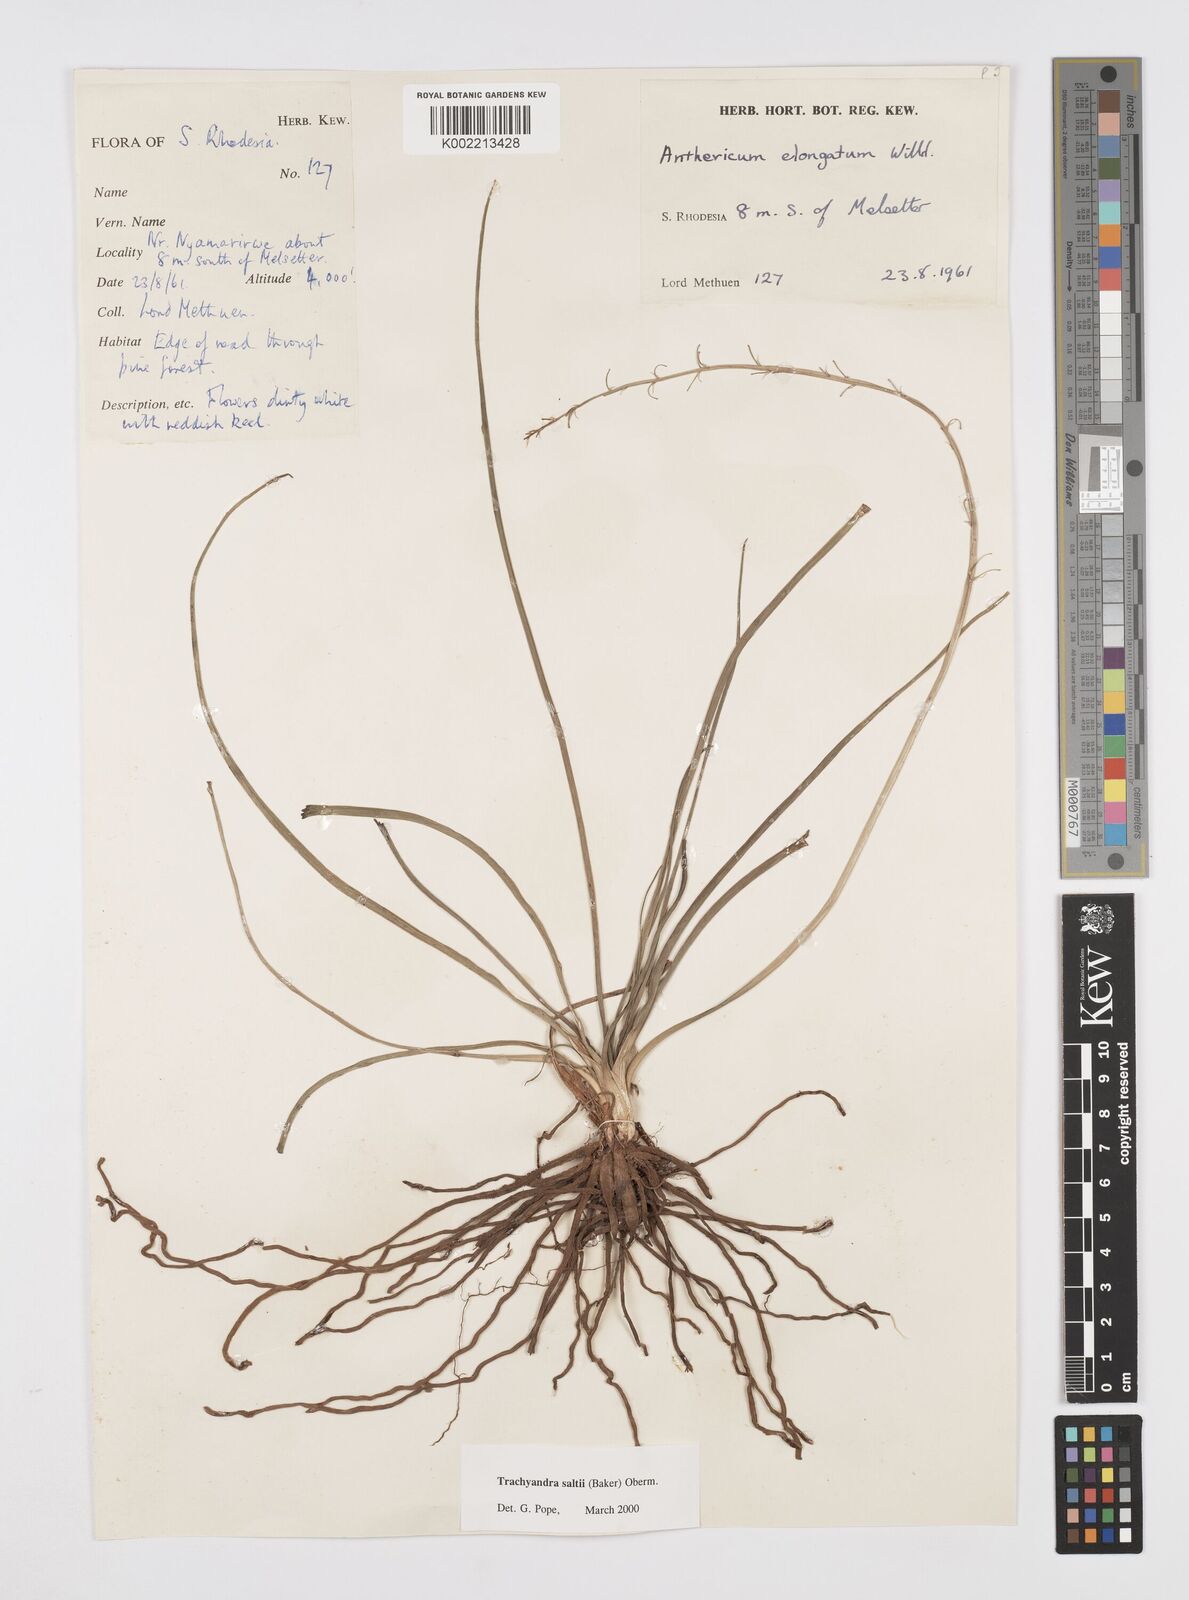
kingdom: Plantae
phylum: Tracheophyta
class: Liliopsida
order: Asparagales
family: Asphodelaceae
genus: Trachyandra
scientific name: Trachyandra saltii
